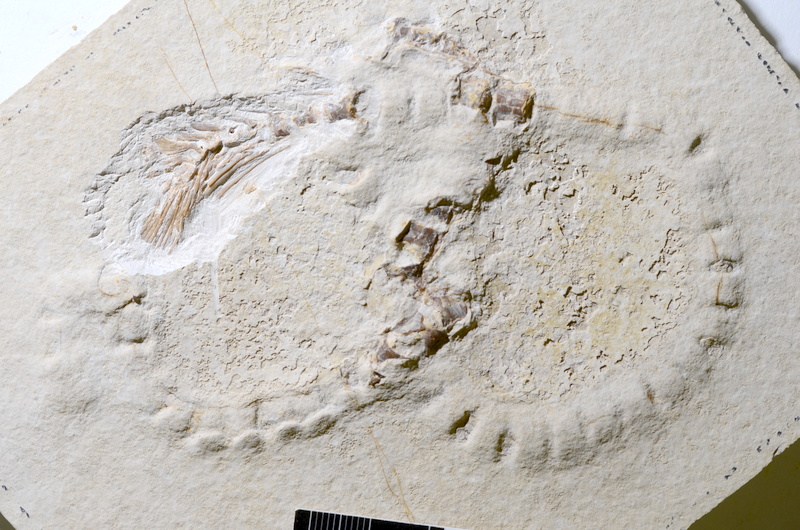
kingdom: Animalia
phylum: Chordata
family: Aspidorhynchidae
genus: Aspidorhynchus
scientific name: Aspidorhynchus
